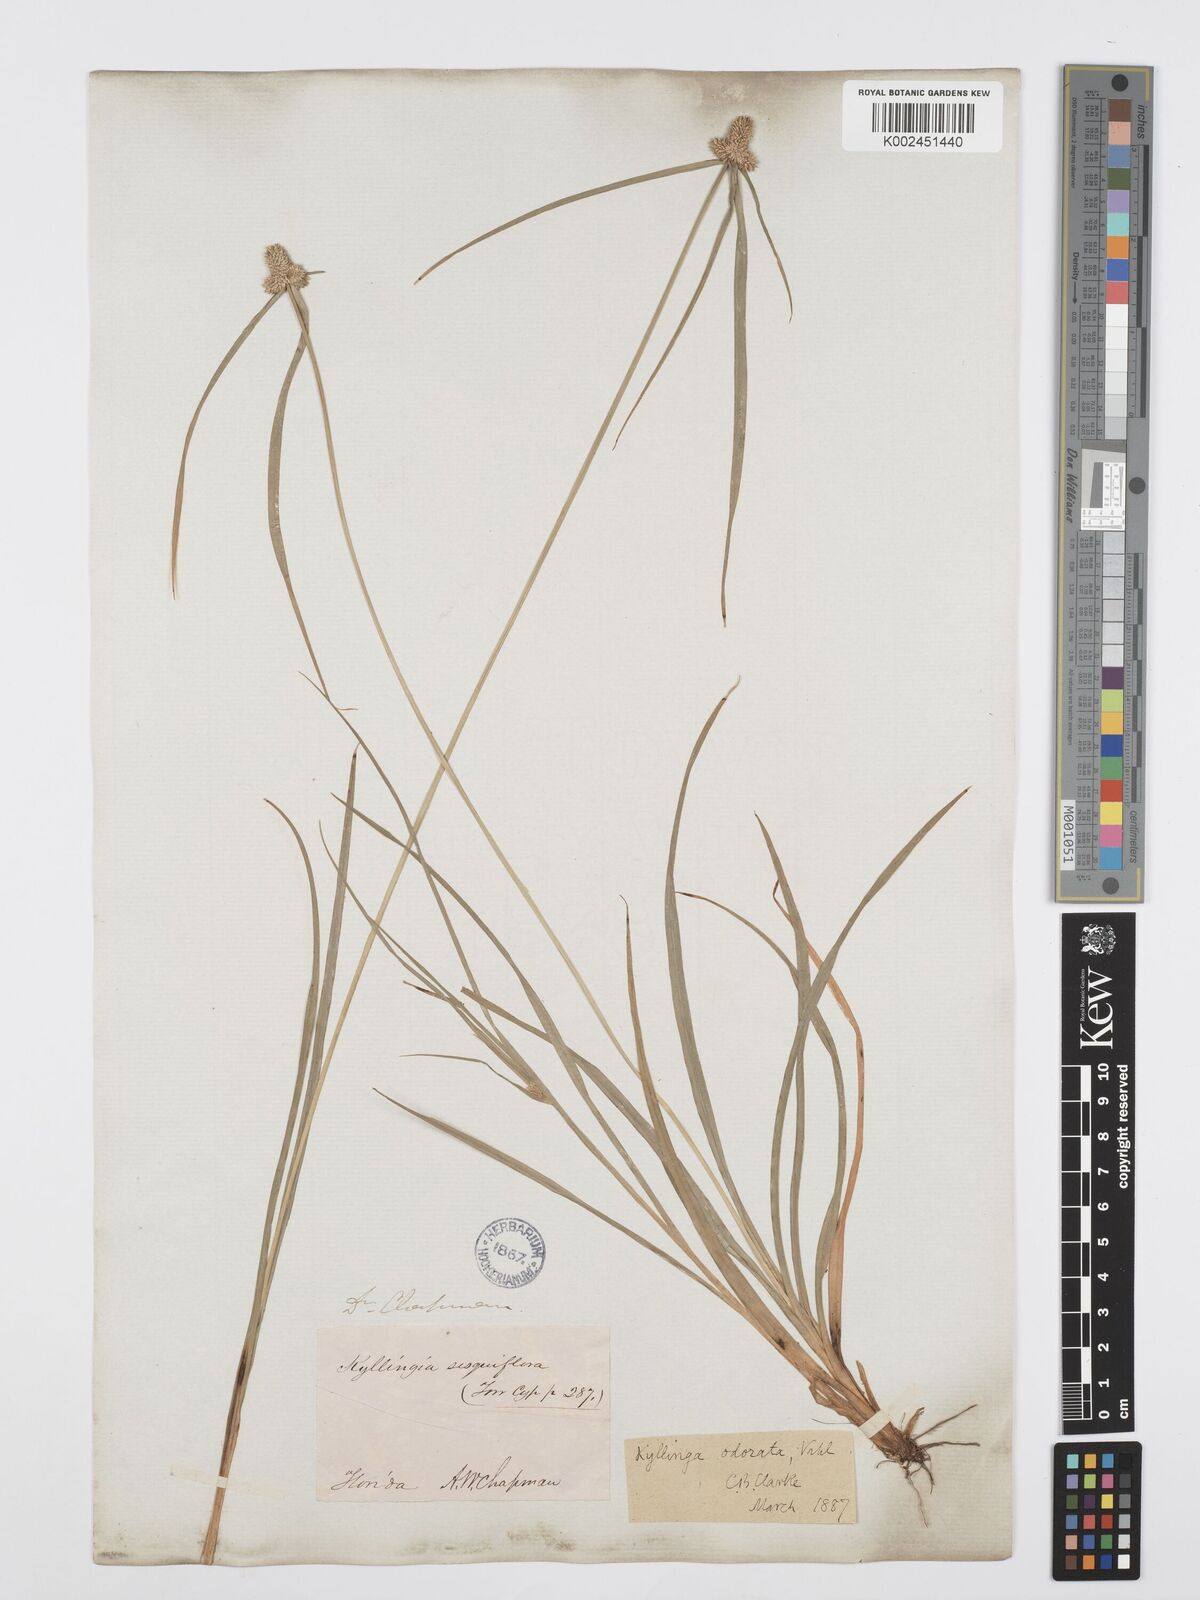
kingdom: Plantae
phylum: Tracheophyta
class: Liliopsida
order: Poales
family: Cyperaceae
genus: Cyperus
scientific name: Cyperus
